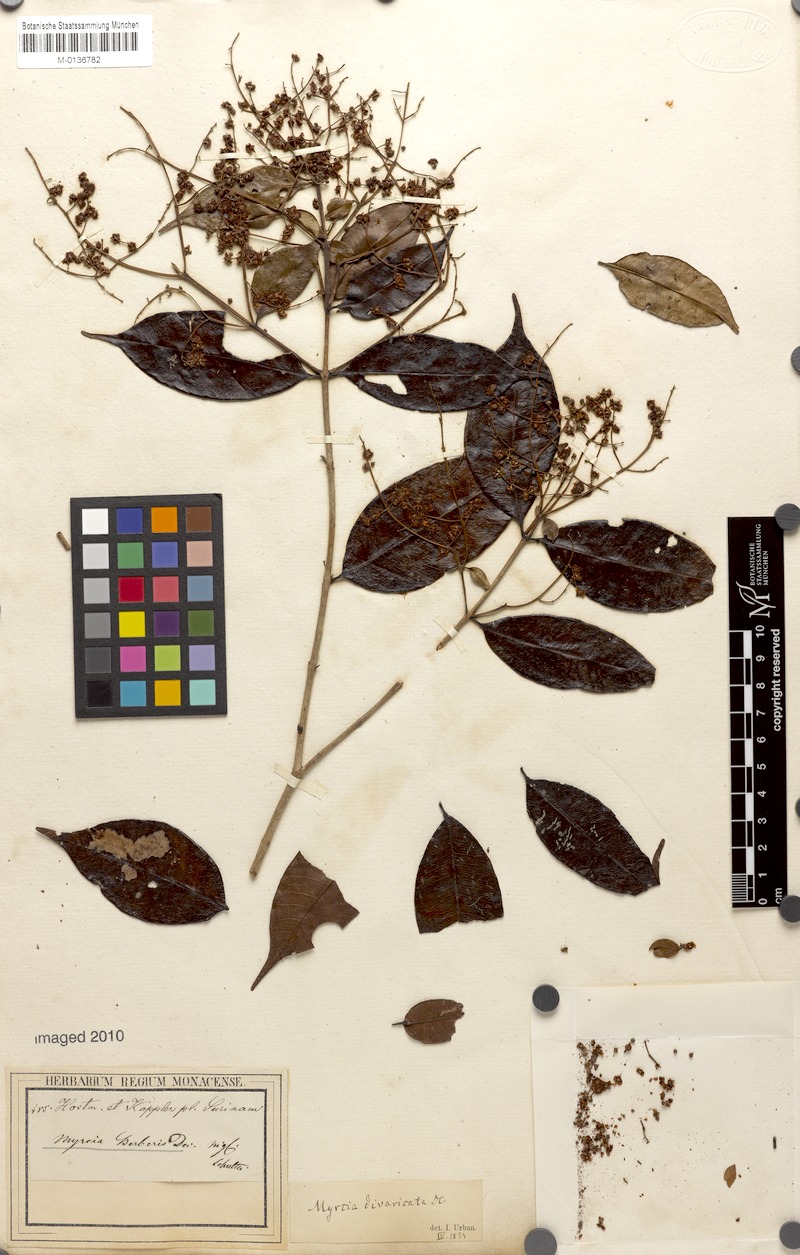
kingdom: Plantae
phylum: Tracheophyta
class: Magnoliopsida
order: Myrtales
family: Myrtaceae
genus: Myrcia
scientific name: Myrcia splendens
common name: Surinam cherry
